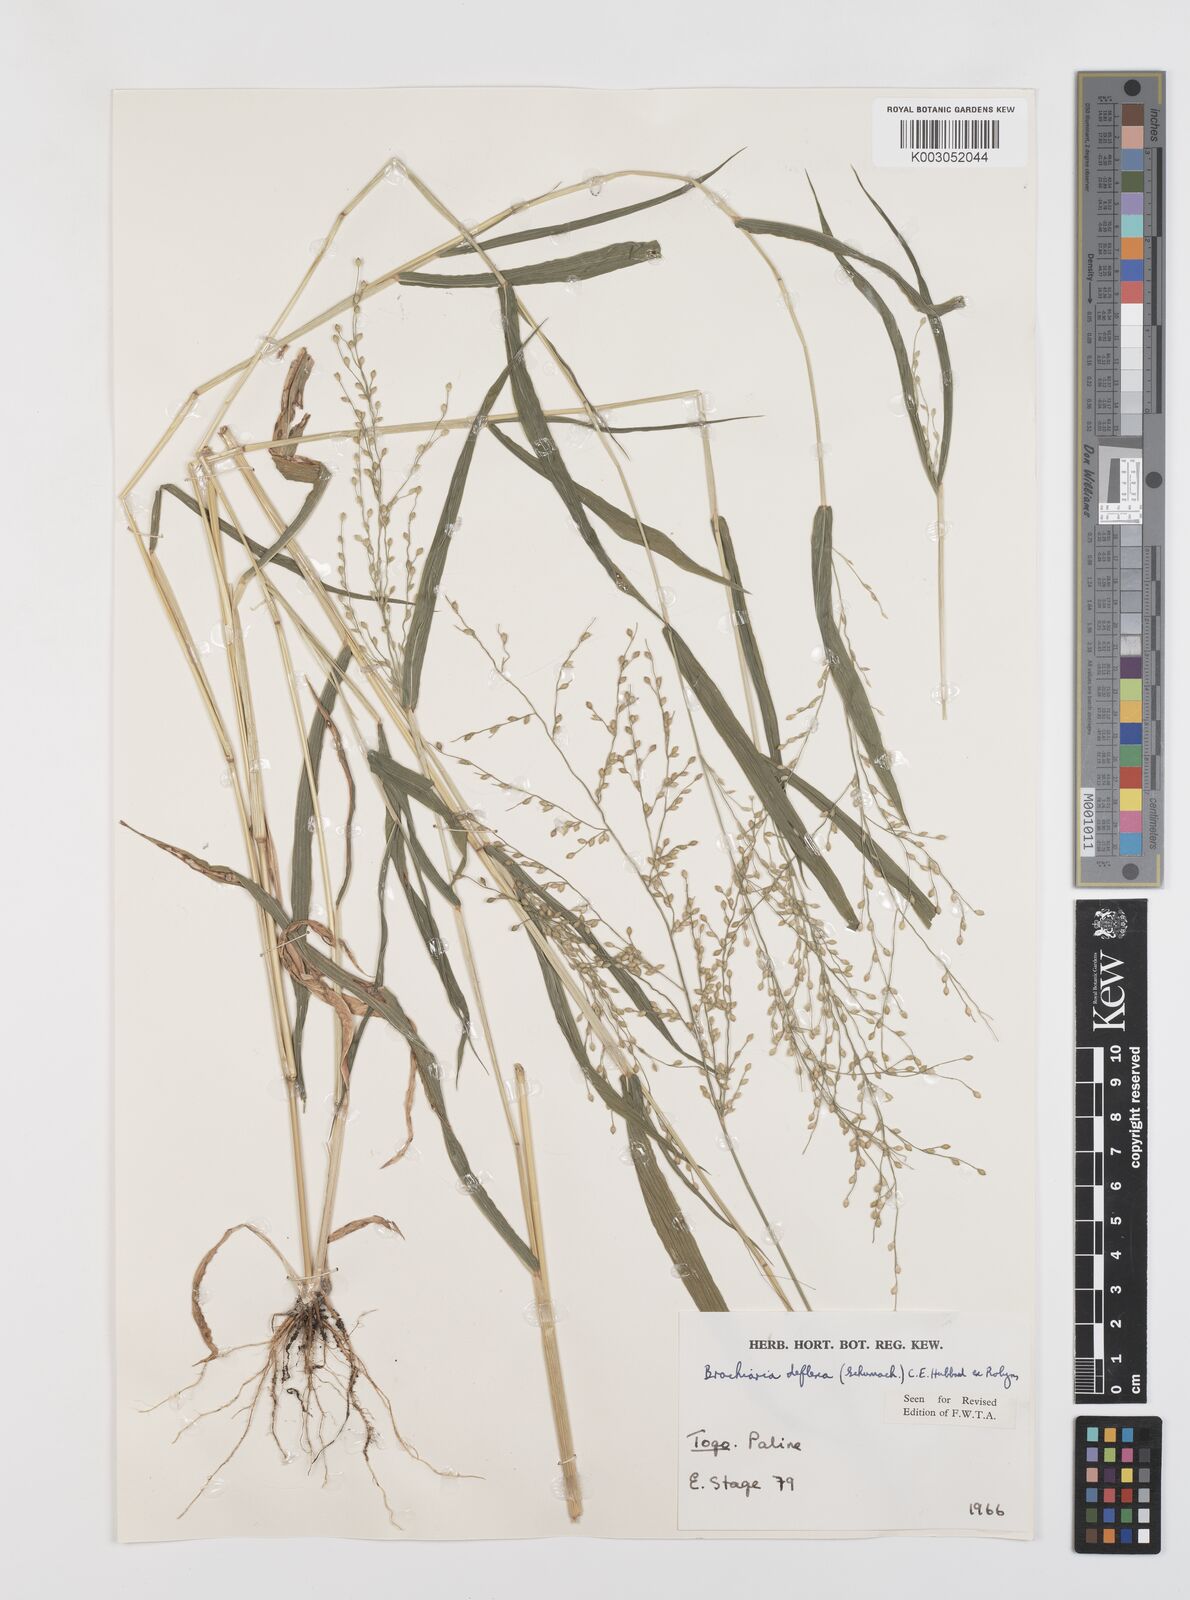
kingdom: Plantae
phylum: Tracheophyta
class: Liliopsida
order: Poales
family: Poaceae
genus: Urochloa
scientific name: Urochloa deflexa
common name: Guinea millet
